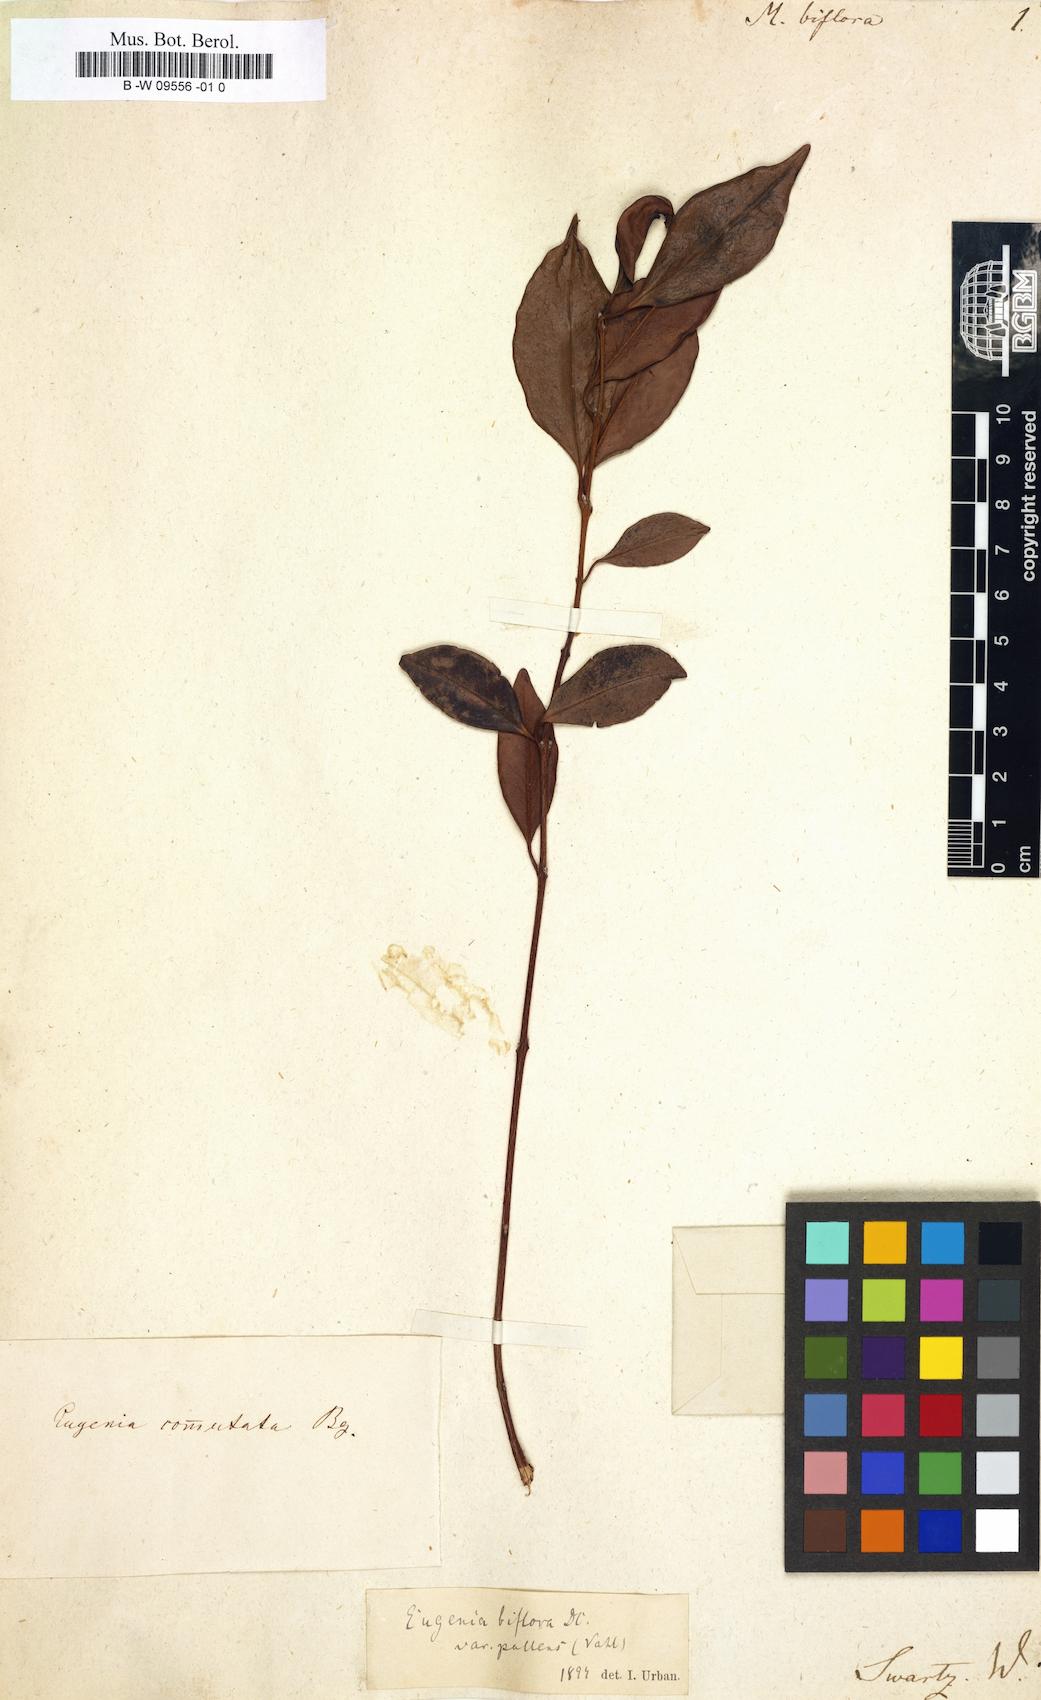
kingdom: Plantae
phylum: Tracheophyta
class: Magnoliopsida
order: Myrtales
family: Myrtaceae
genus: Myrtus
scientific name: Myrtus biflora
